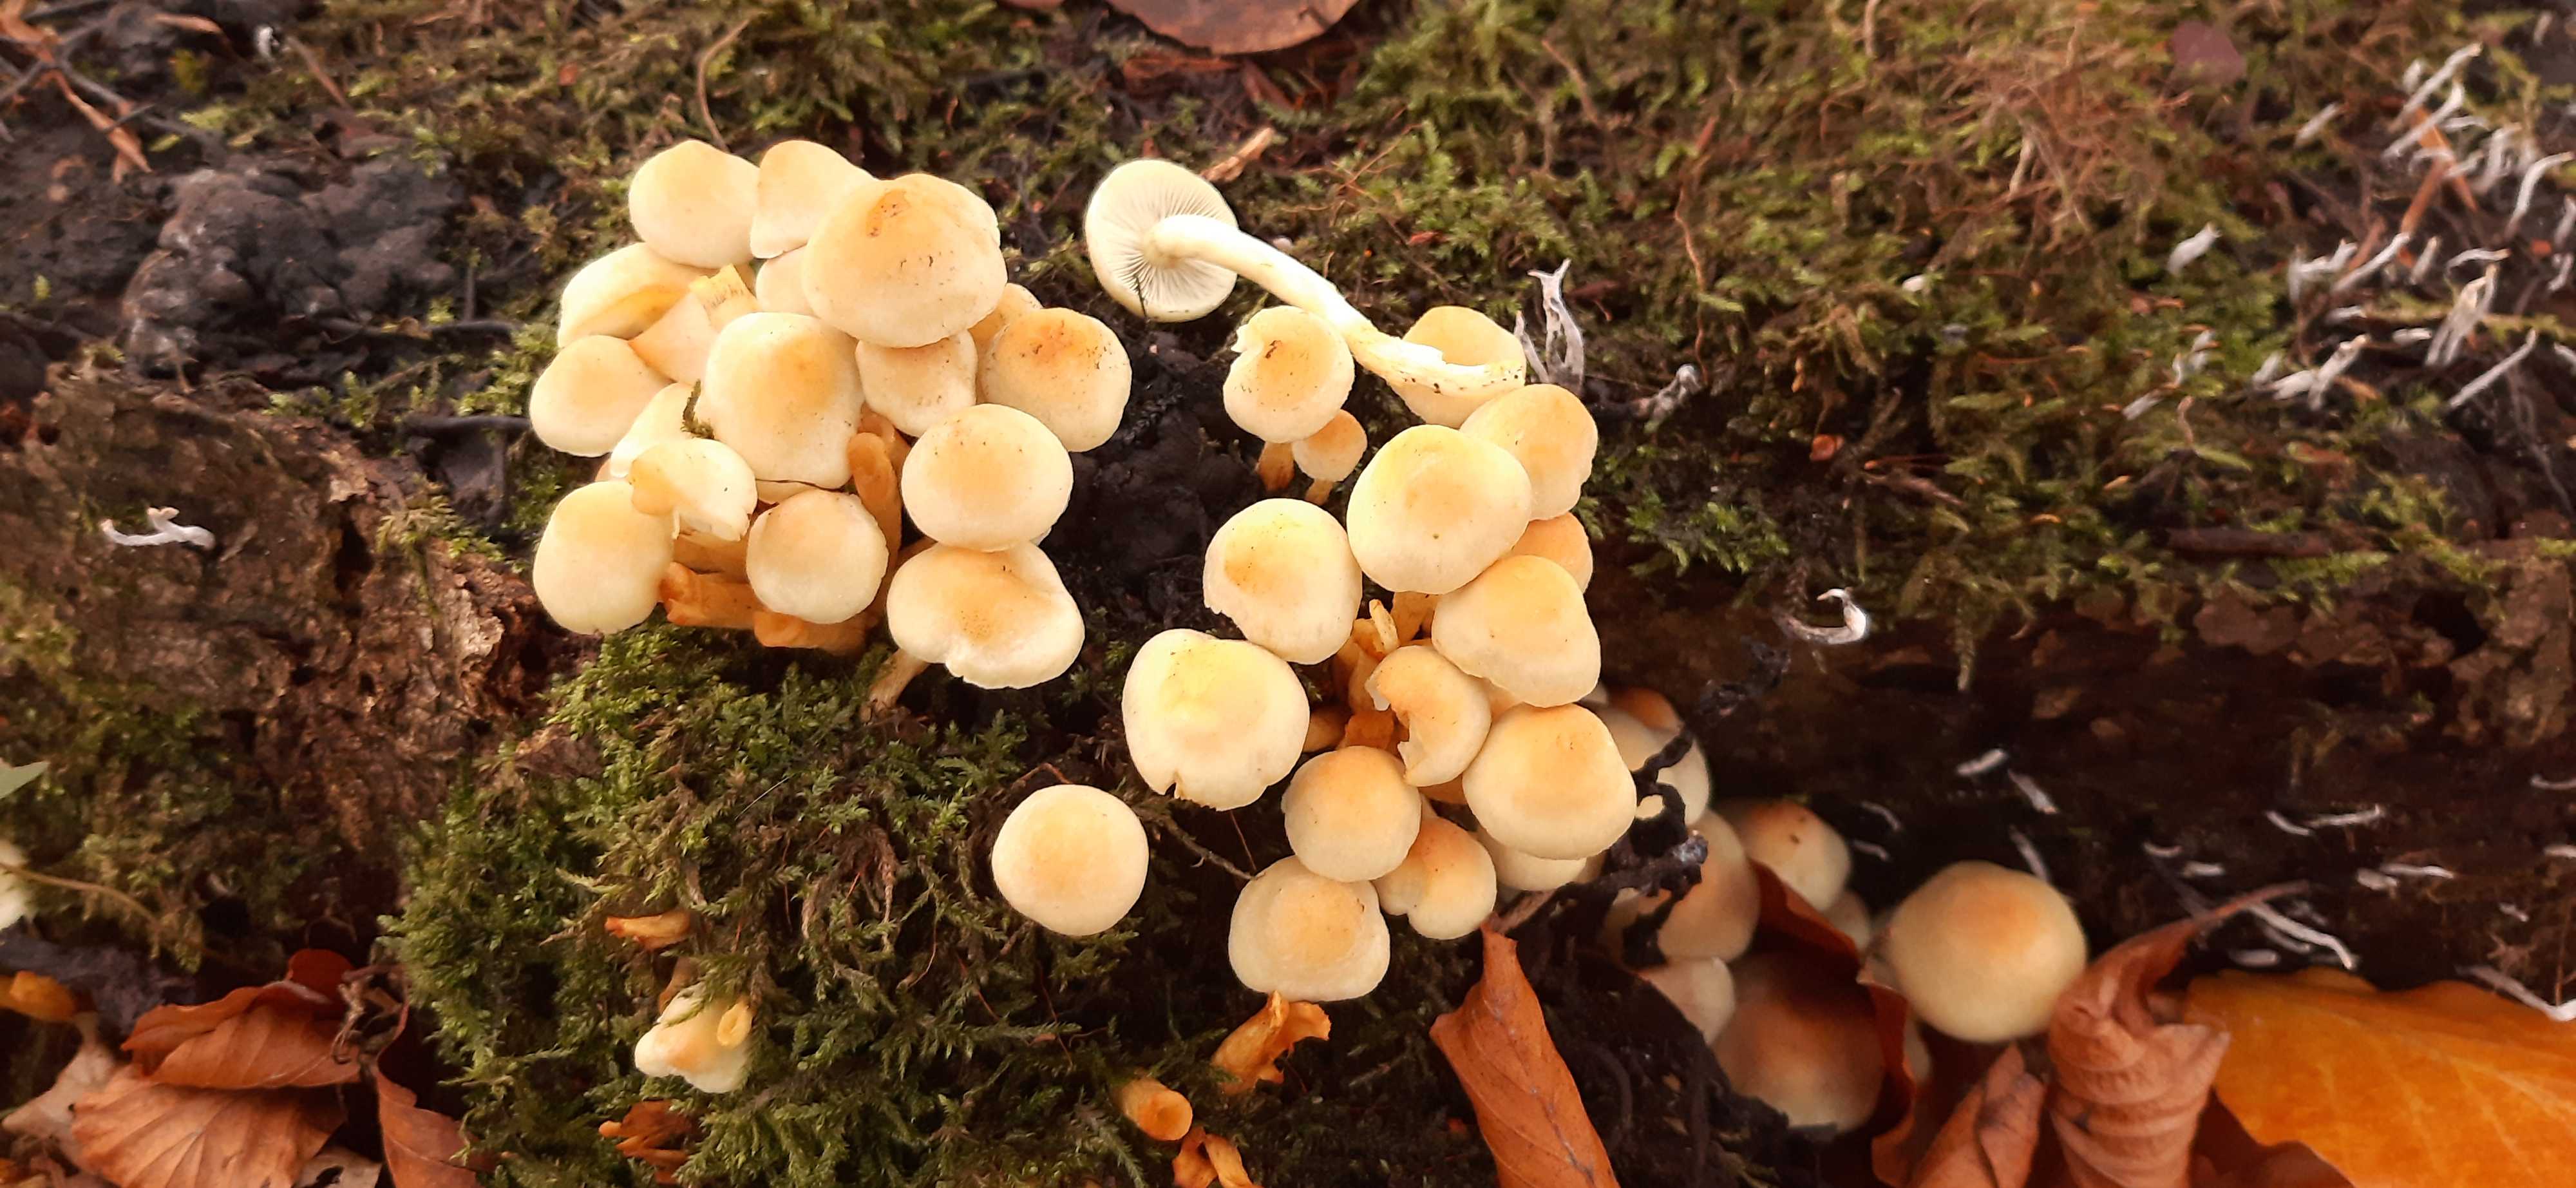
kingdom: Fungi
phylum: Basidiomycota
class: Agaricomycetes
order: Agaricales
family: Strophariaceae
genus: Hypholoma
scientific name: Hypholoma fasciculare
